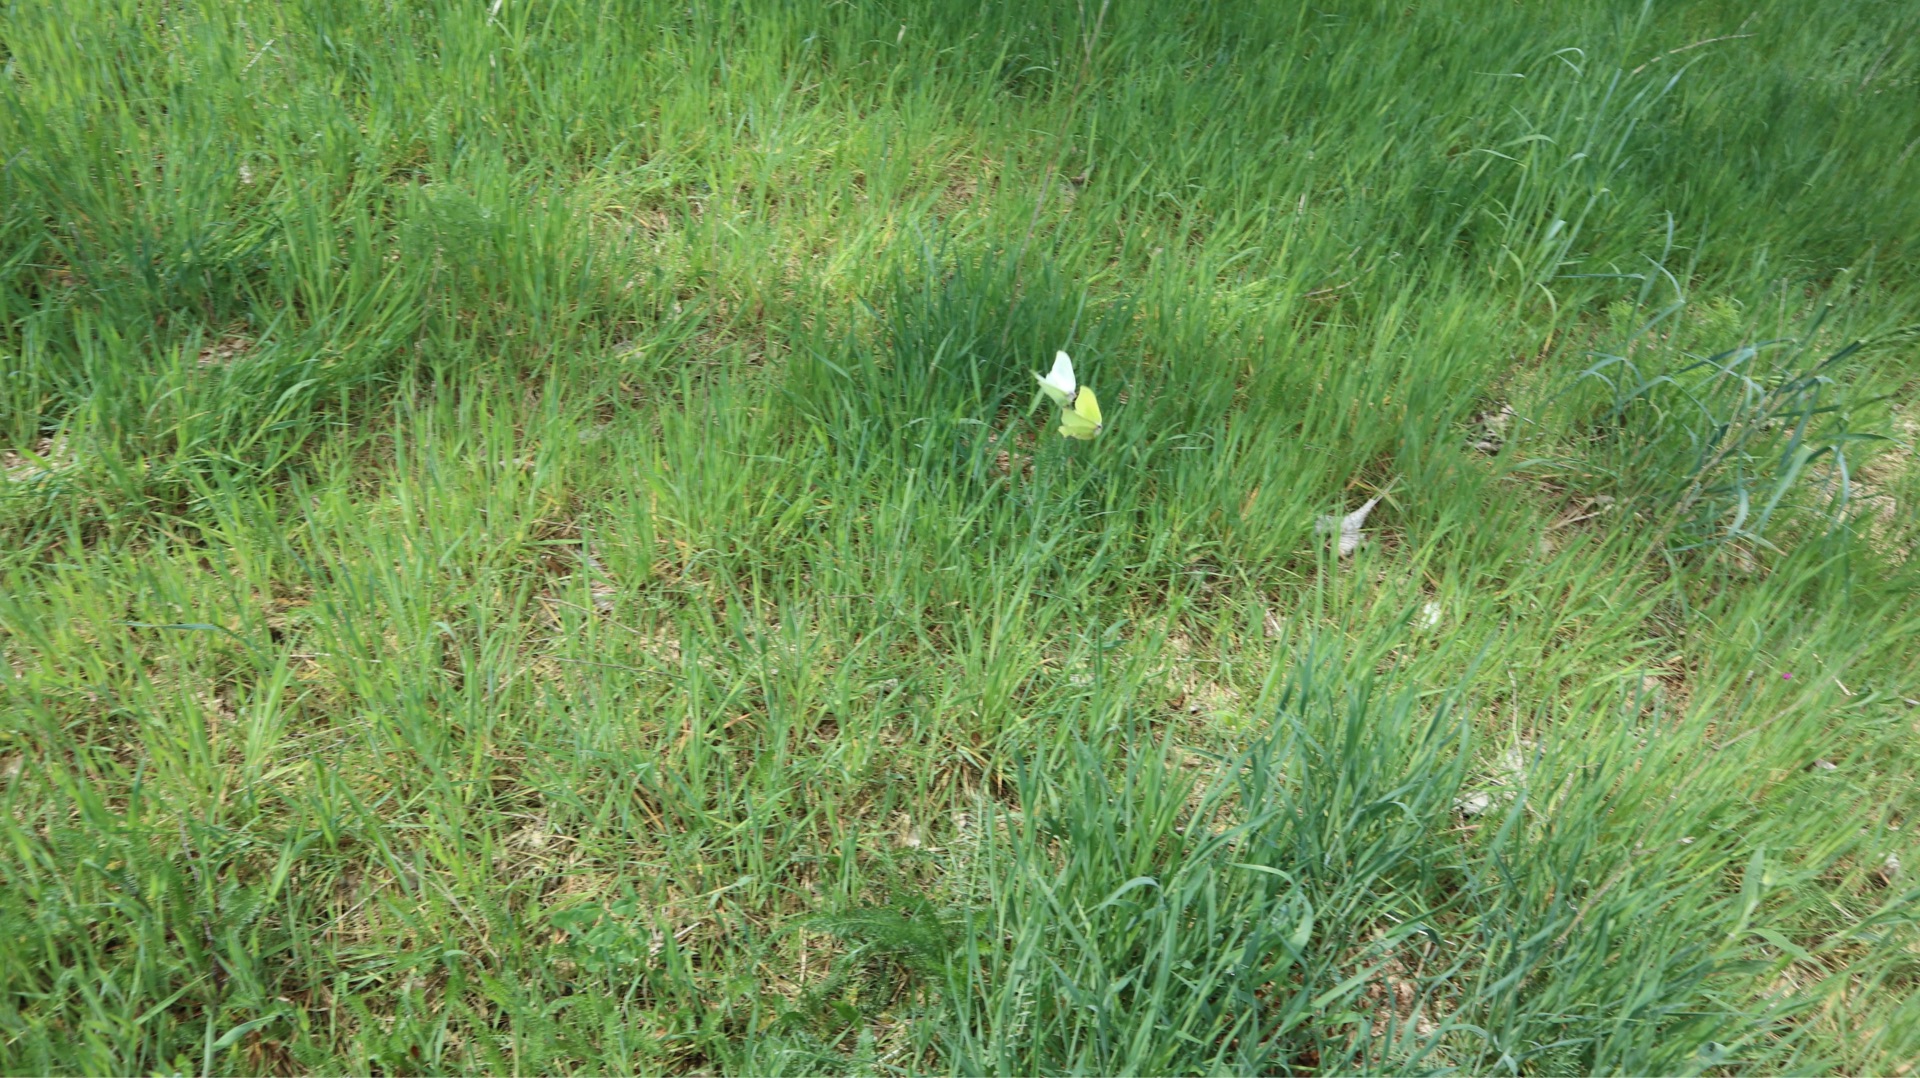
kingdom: Animalia
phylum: Arthropoda
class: Insecta
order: Lepidoptera
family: Pieridae
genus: Gonepteryx
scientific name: Gonepteryx rhamni
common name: Citronsommerfugl
